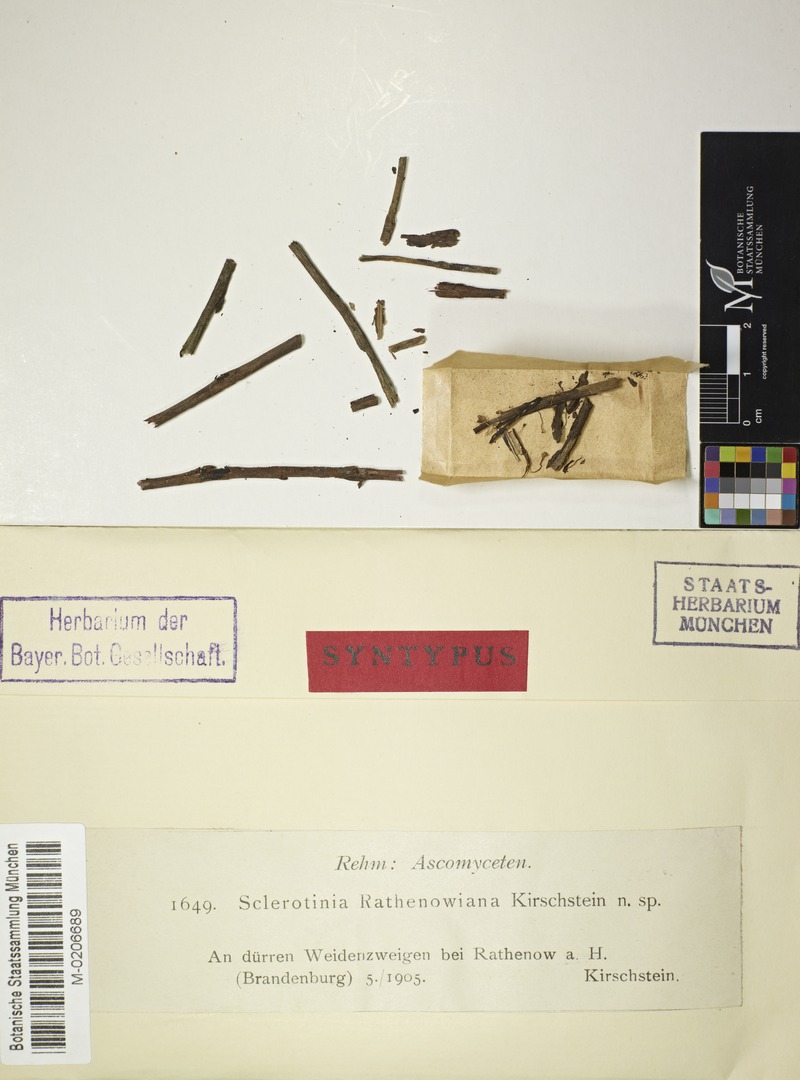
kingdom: Fungi
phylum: Ascomycota
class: Leotiomycetes
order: Helotiales
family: Sclerotiniaceae
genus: Sclerotinia
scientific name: Sclerotinia rathenowiana
